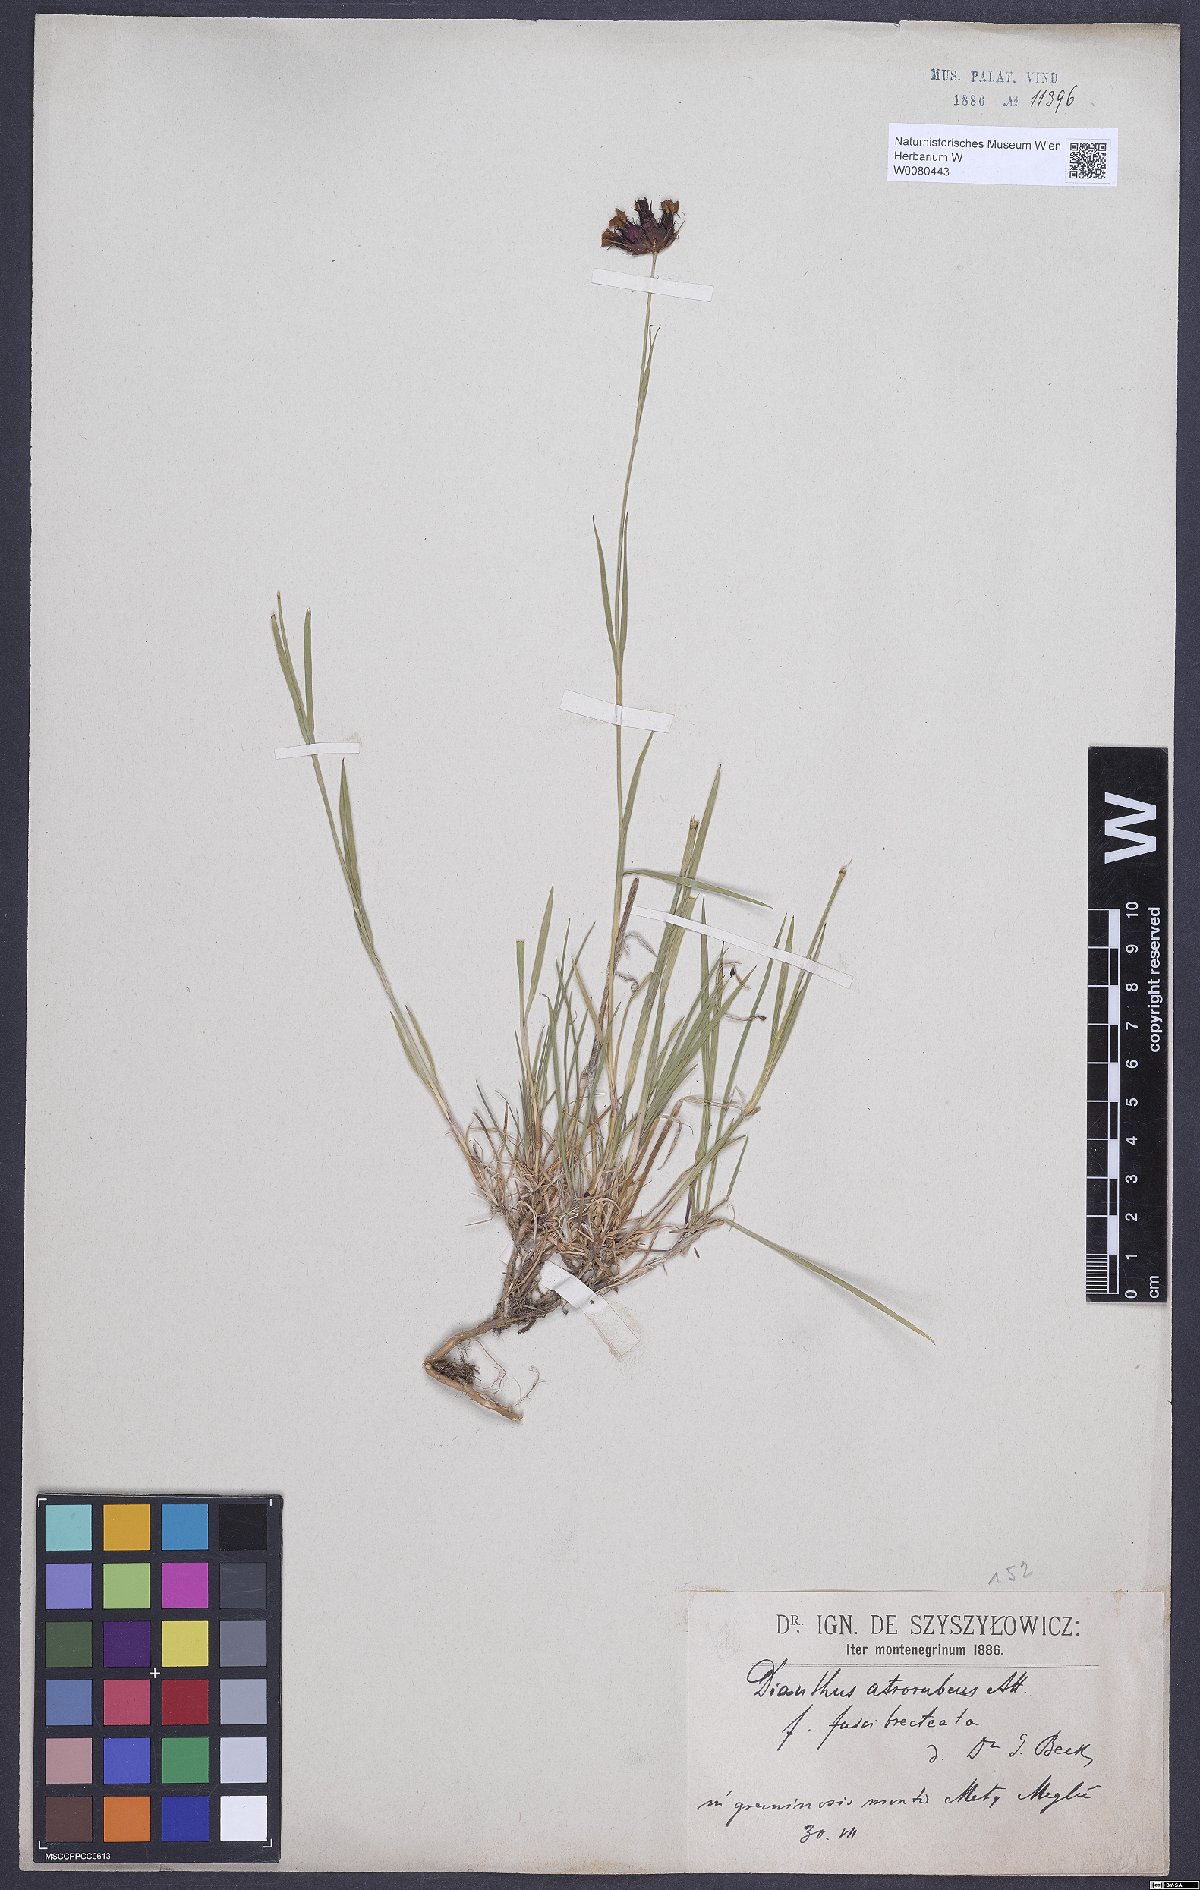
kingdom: Plantae
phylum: Tracheophyta
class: Magnoliopsida
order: Caryophyllales
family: Caryophyllaceae
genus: Dianthus
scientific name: Dianthus carthusianorum
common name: Carthusian pink
